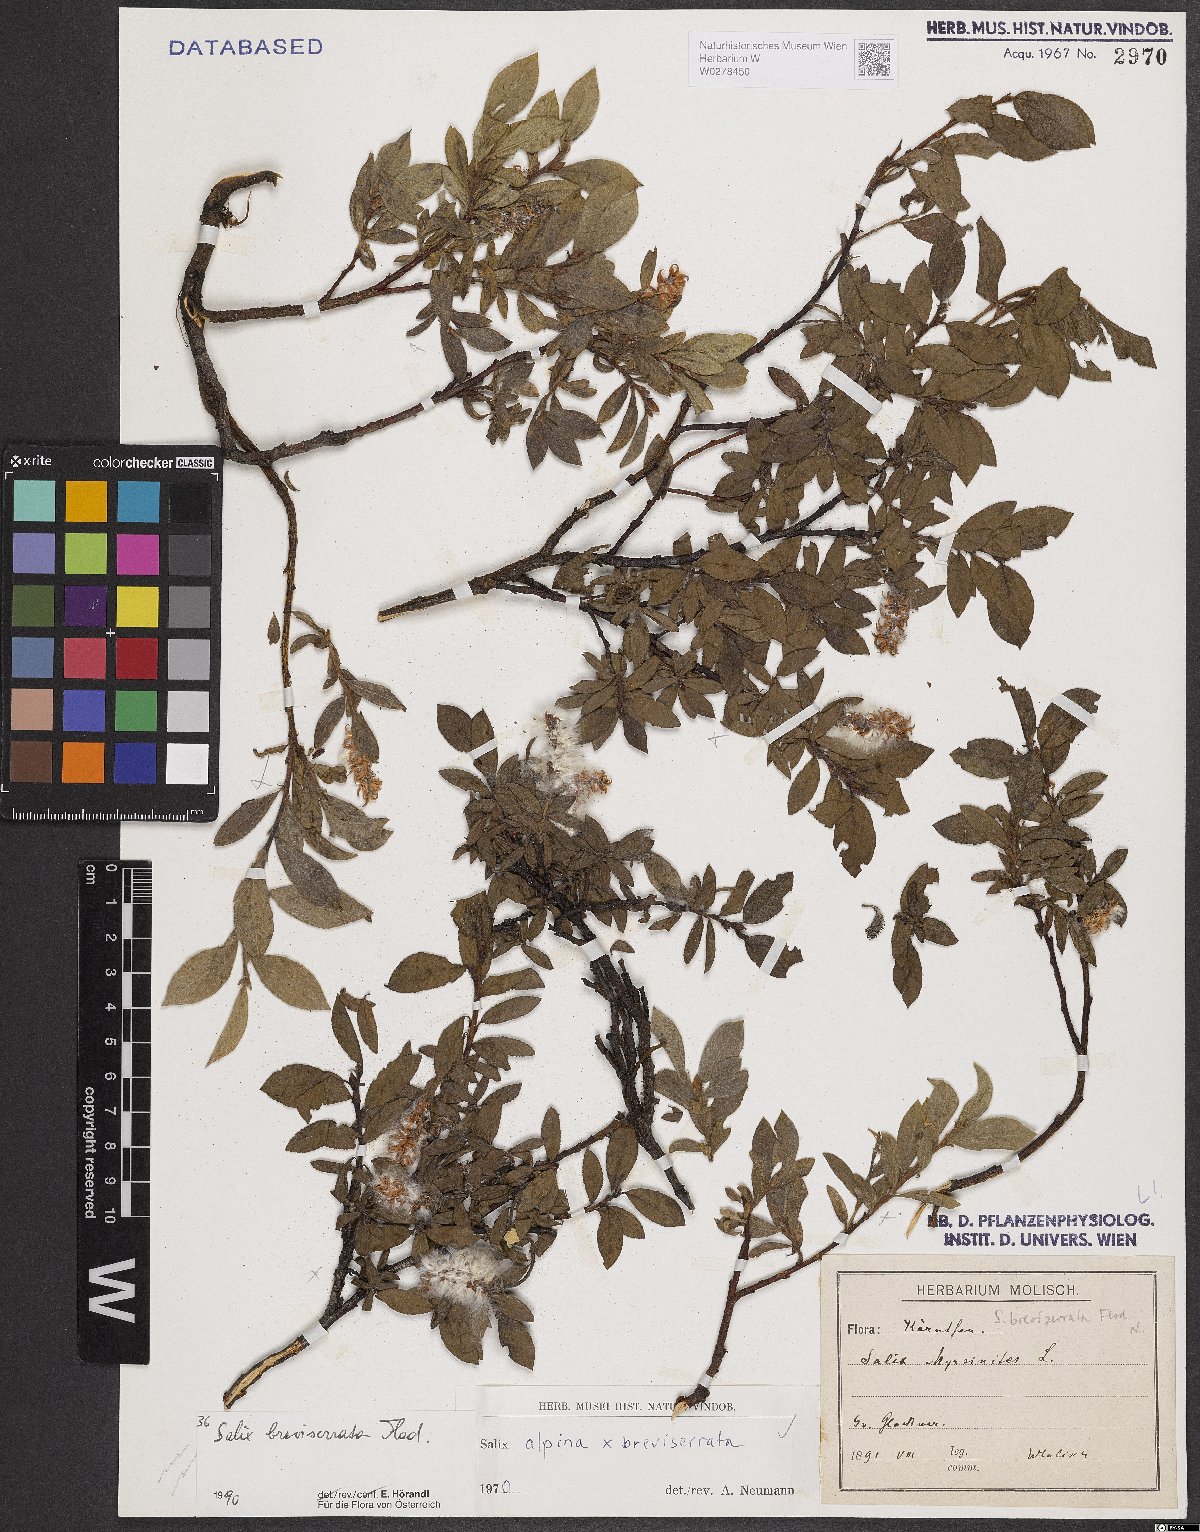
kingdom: Plantae
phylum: Tracheophyta
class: Magnoliopsida
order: Malpighiales
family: Salicaceae
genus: Salix
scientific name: Salix breviserrata
